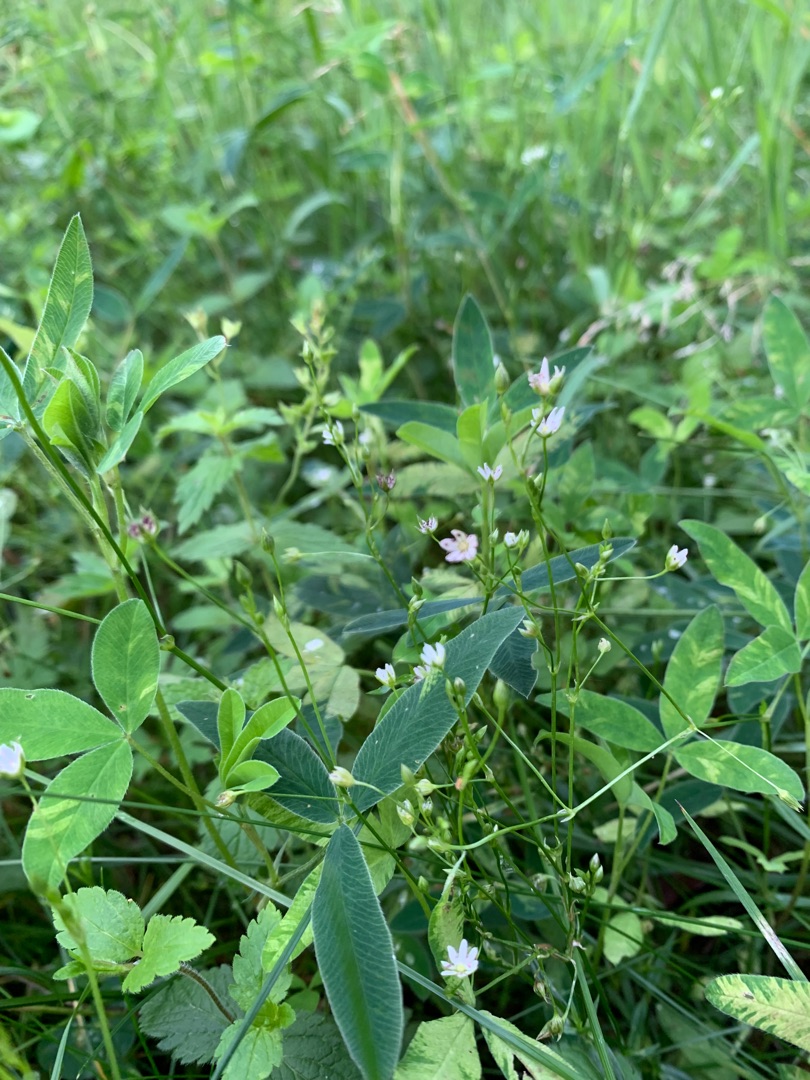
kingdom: Plantae
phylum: Tracheophyta
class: Magnoliopsida
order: Caryophyllales
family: Caryophyllaceae
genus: Stellaria
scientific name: Stellaria graminea
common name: Græsbladet fladstjerne
